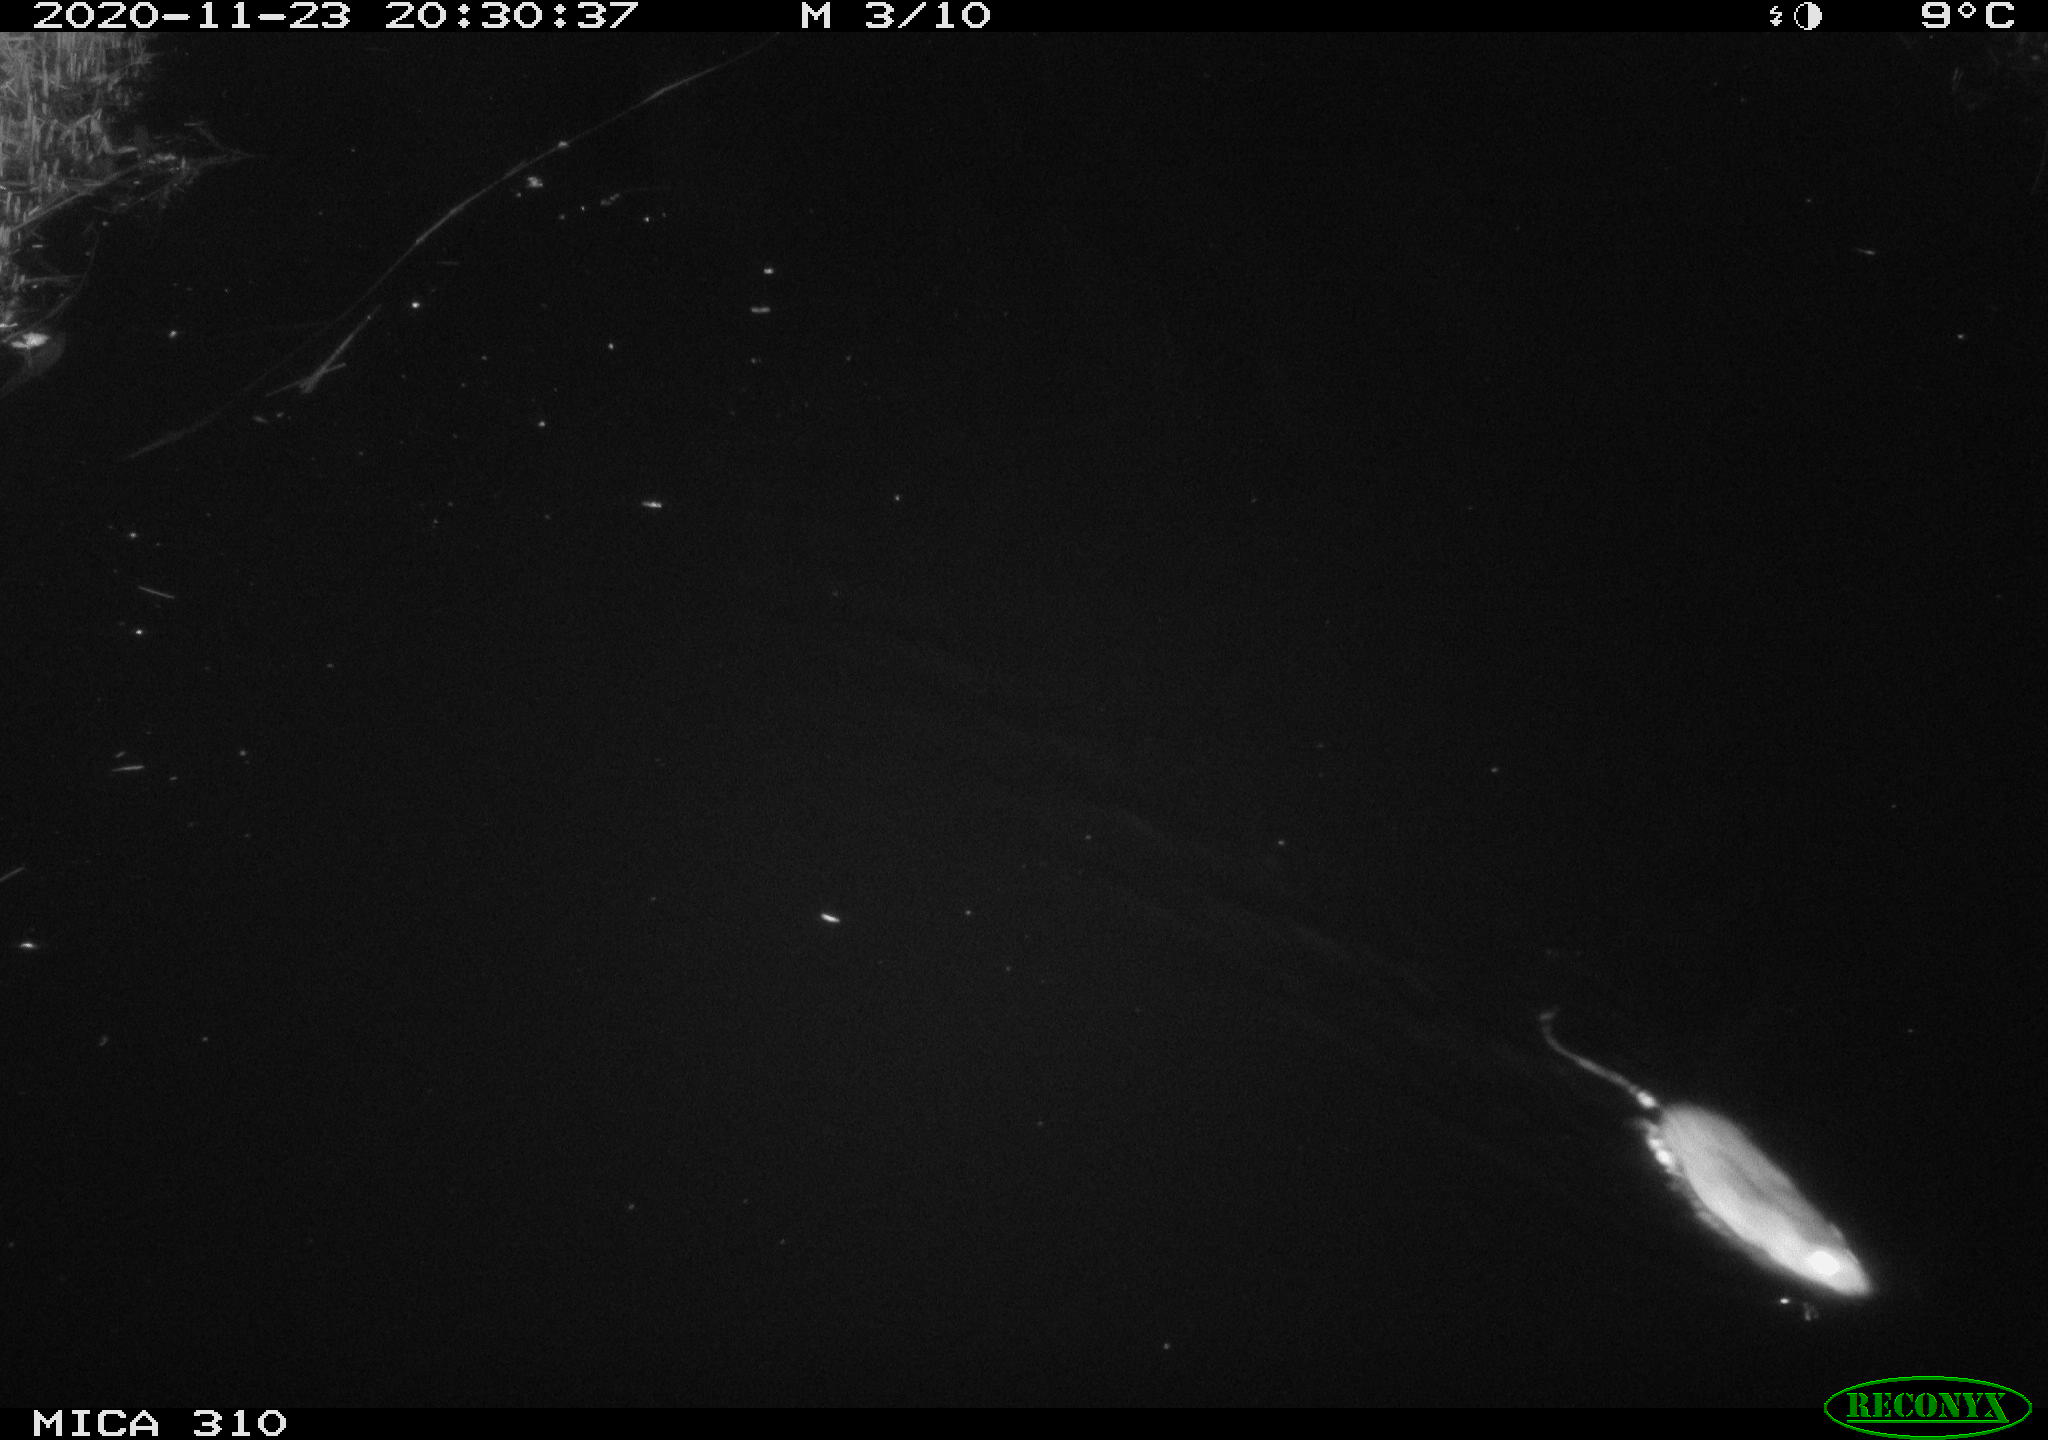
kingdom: Animalia
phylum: Chordata
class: Mammalia
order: Rodentia
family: Muridae
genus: Rattus
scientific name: Rattus norvegicus
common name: Brown rat
